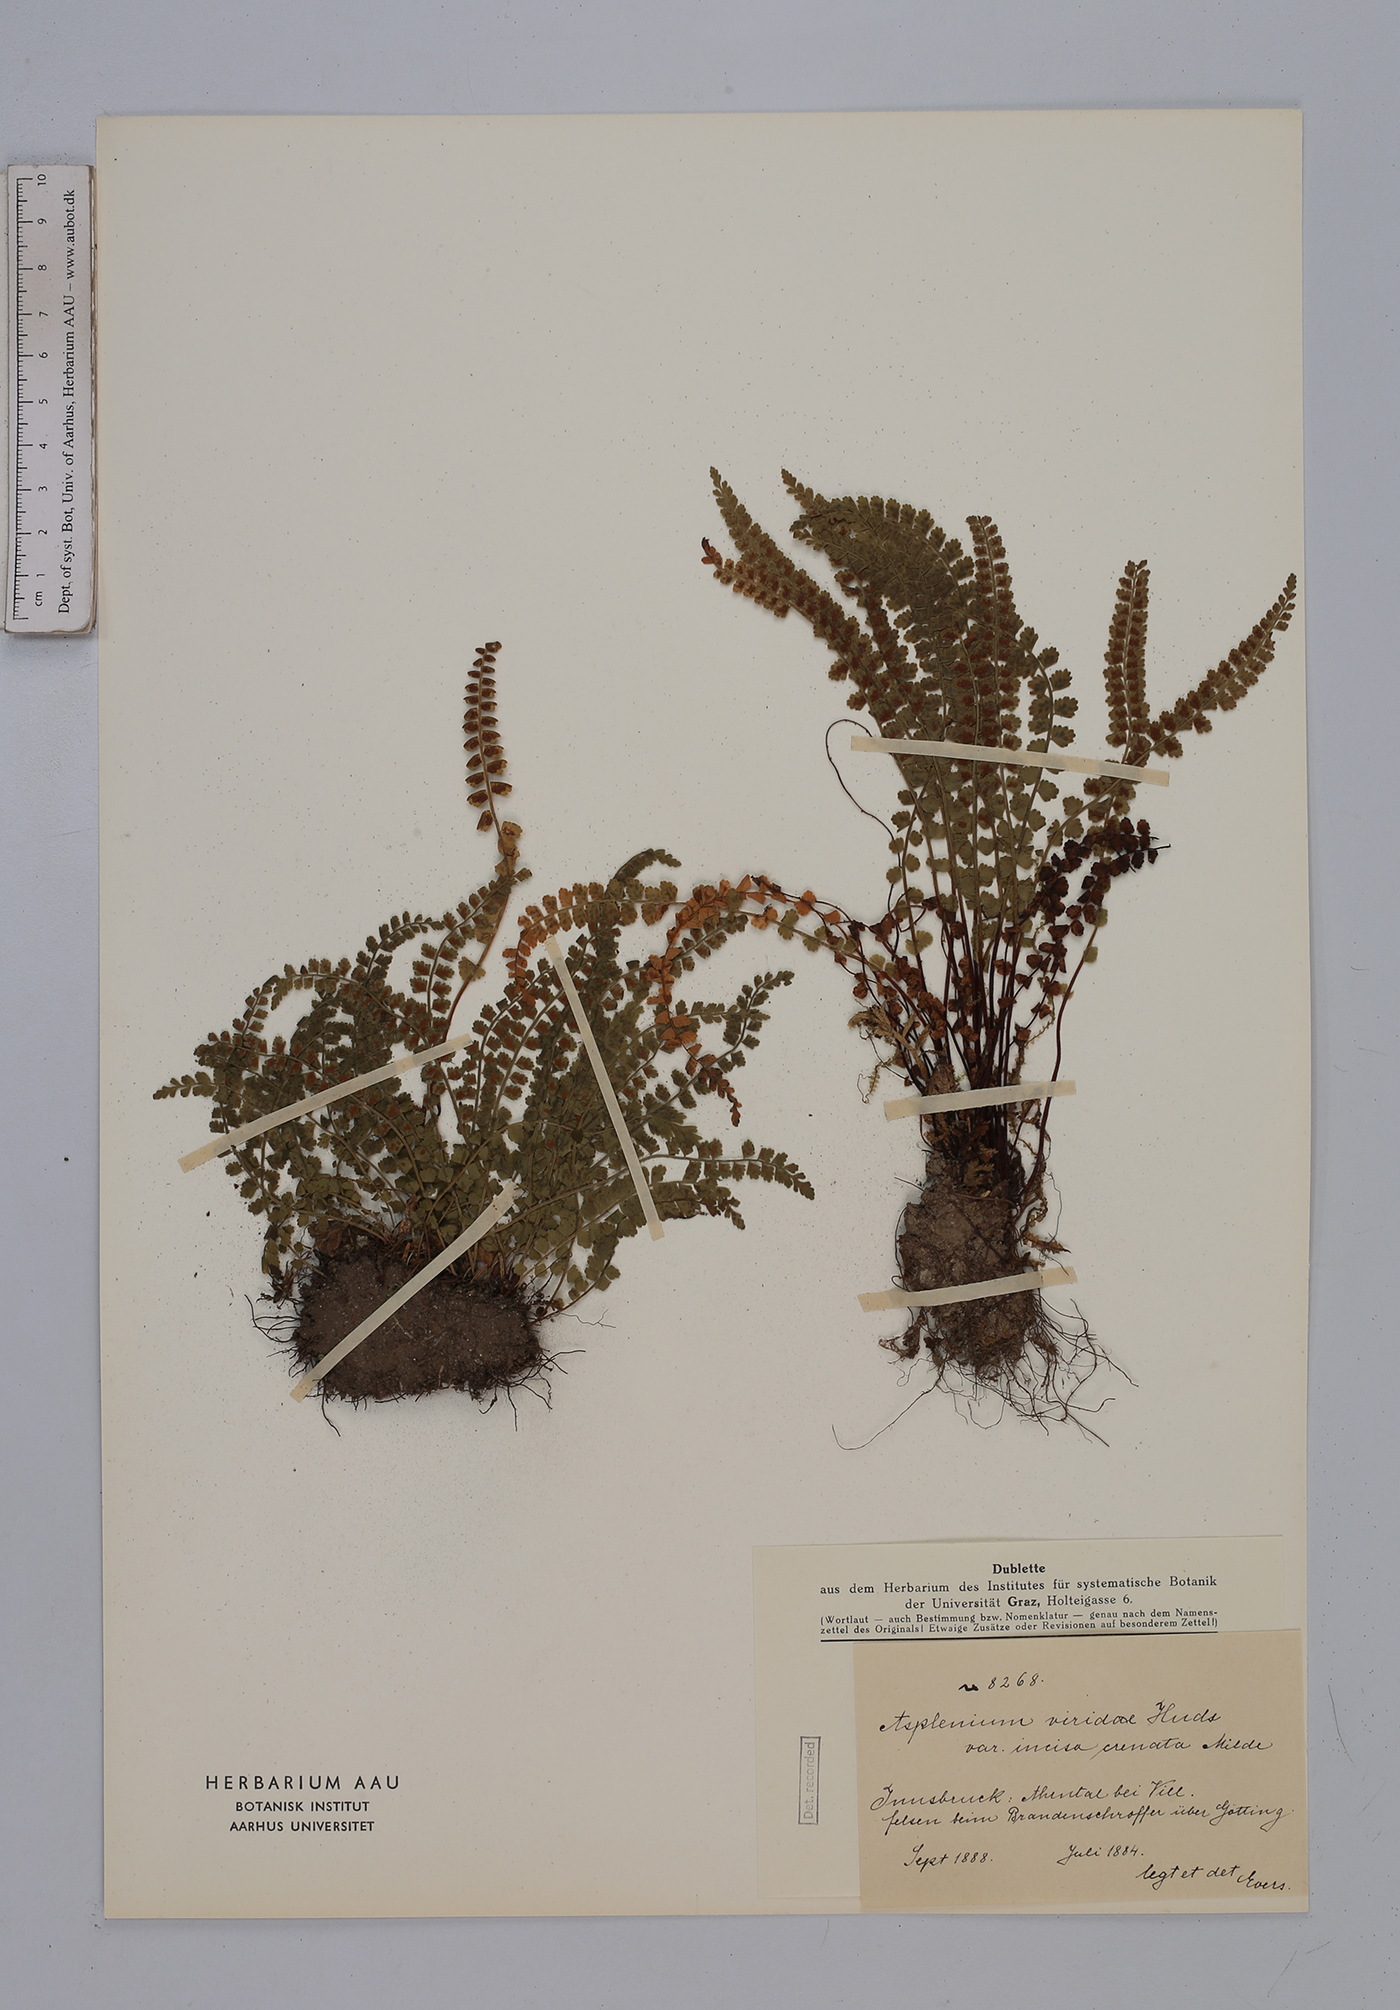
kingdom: Plantae
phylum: Tracheophyta
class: Polypodiopsida
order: Polypodiales
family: Aspleniaceae
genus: Asplenium
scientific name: Asplenium viride
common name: Green spleenwort
